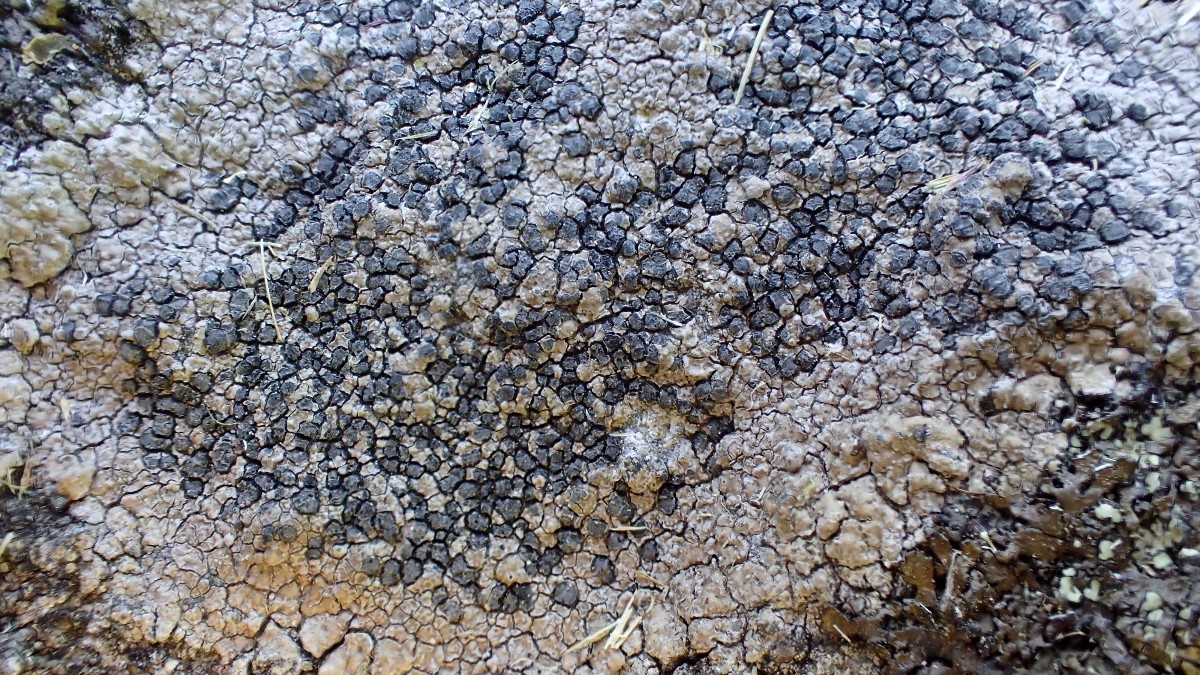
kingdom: Fungi
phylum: Ascomycota
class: Lecanoromycetes
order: Lecideales
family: Lecideaceae
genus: Lecidea
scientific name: Lecidea fuscoatra
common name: rudret skivelav
